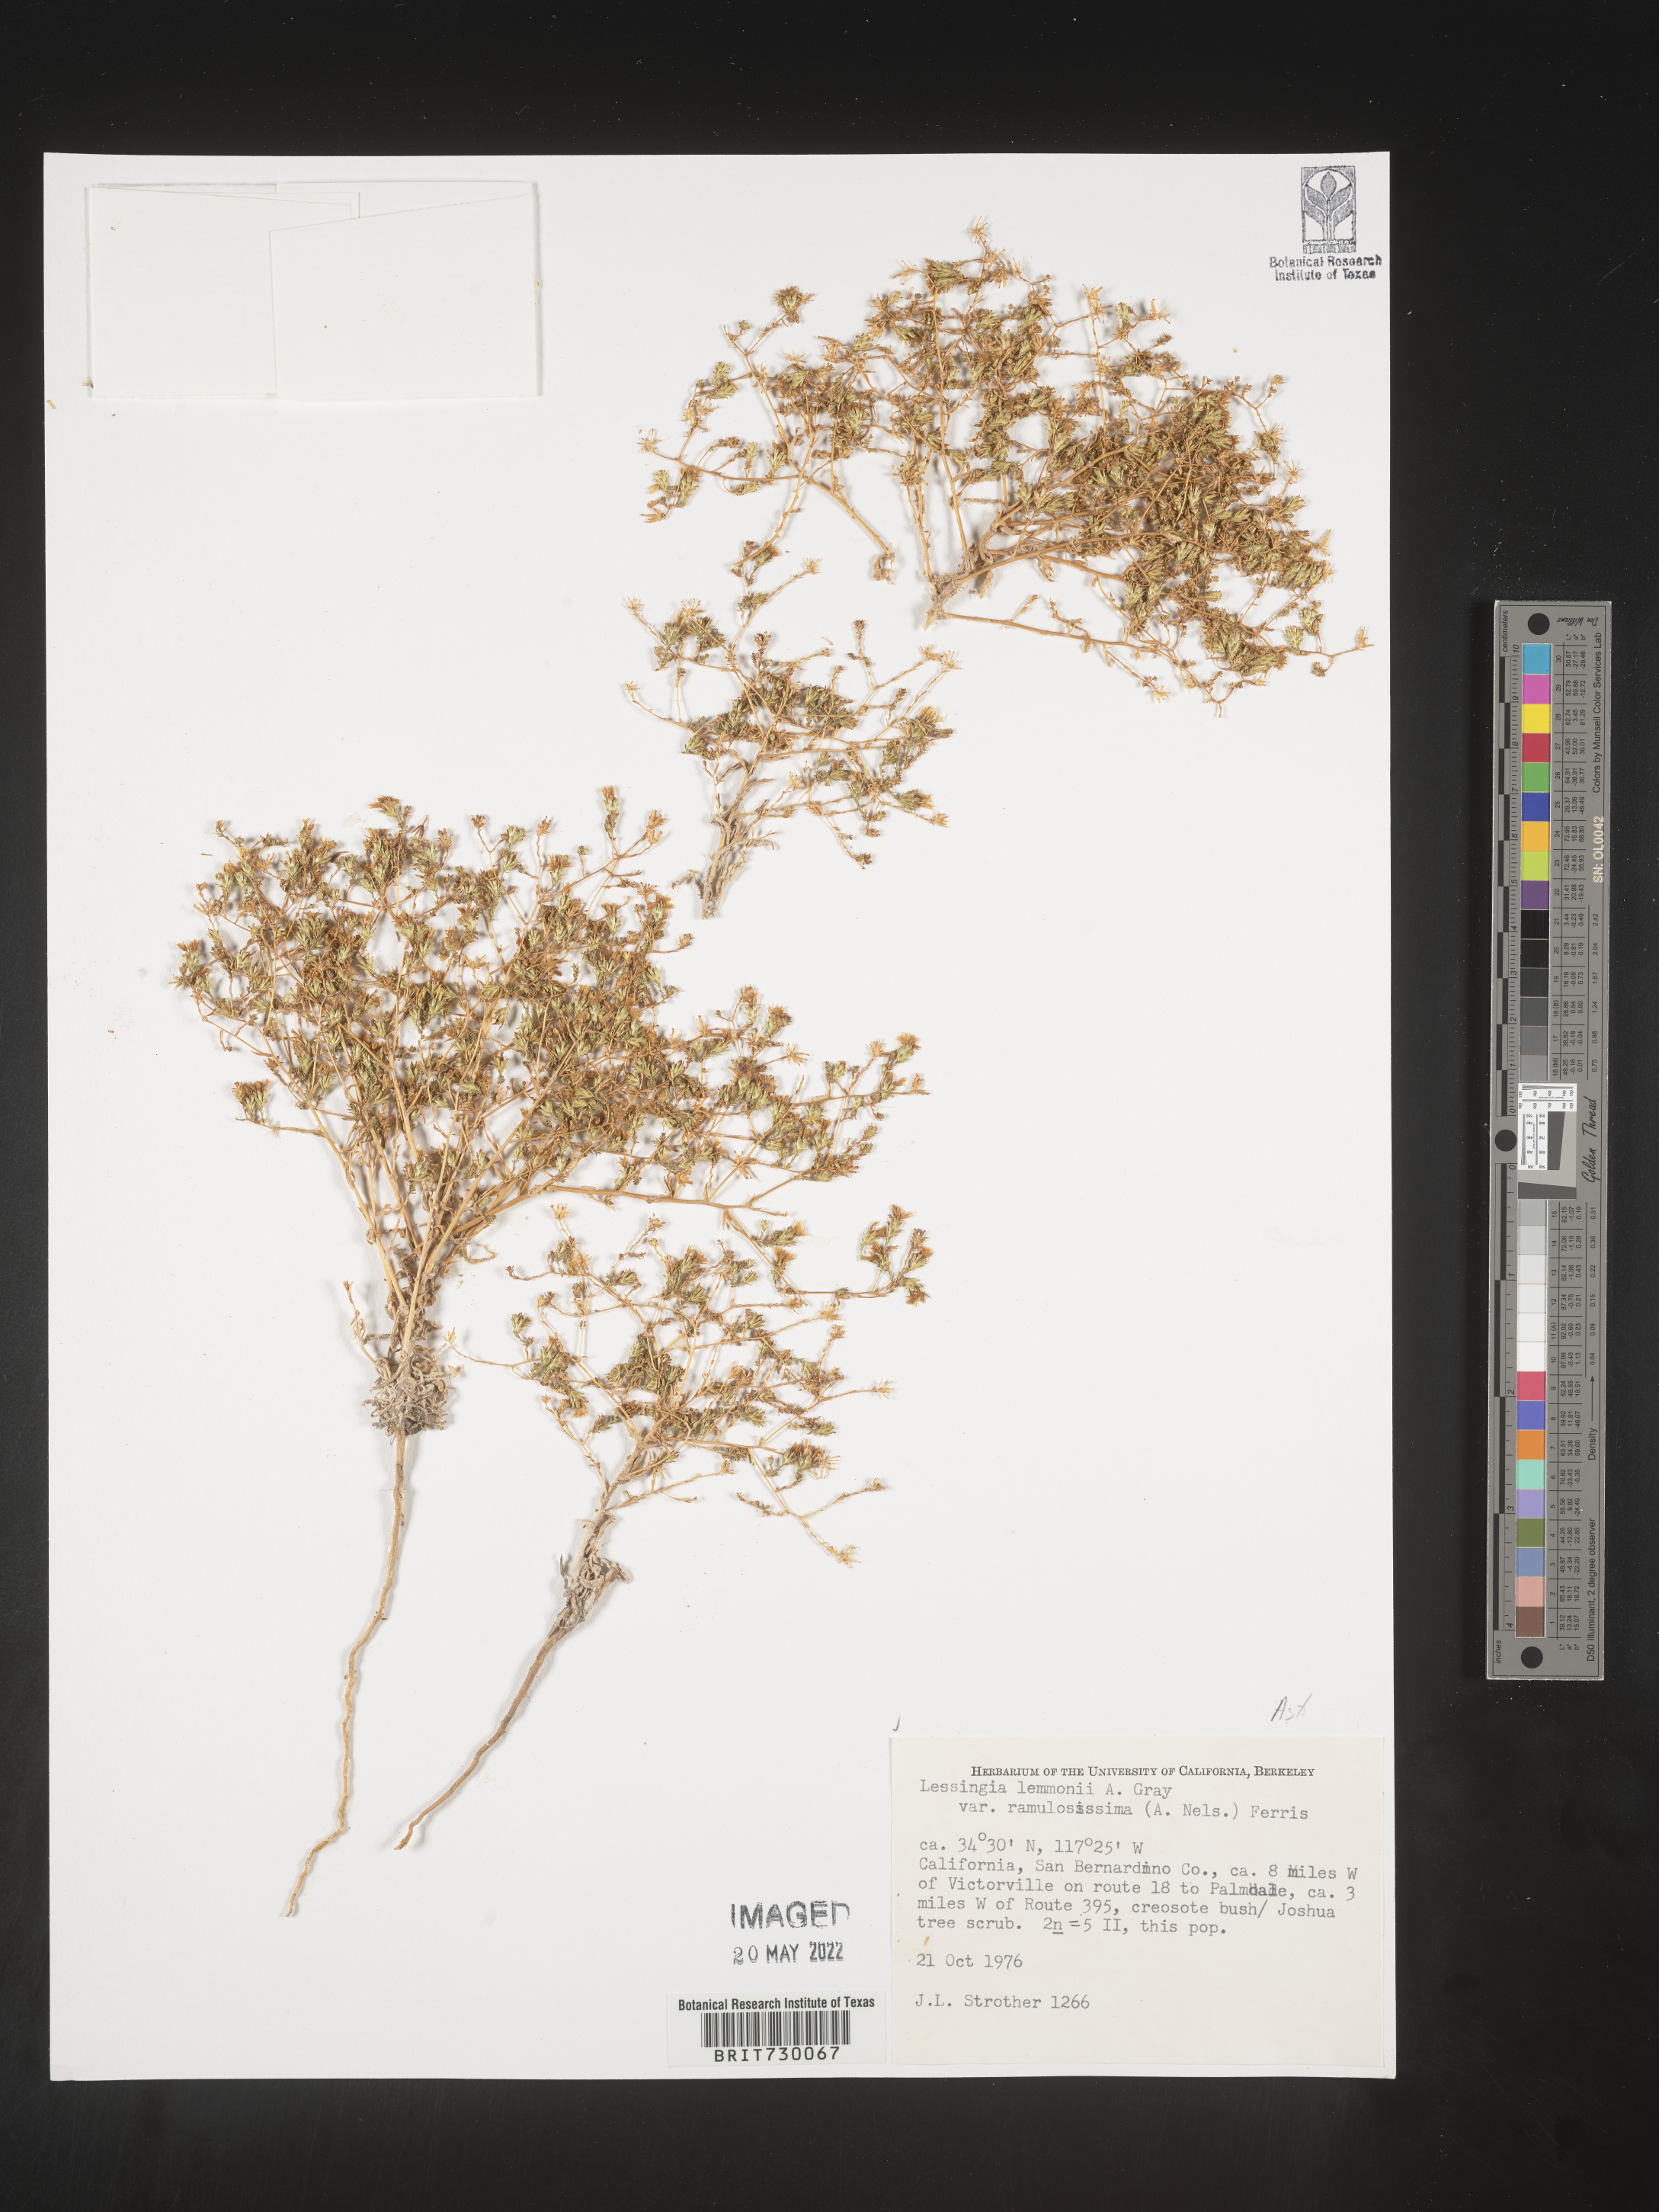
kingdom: Plantae
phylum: Tracheophyta
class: Magnoliopsida
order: Asterales
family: Asteraceae
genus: Lessingia
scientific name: Lessingia
